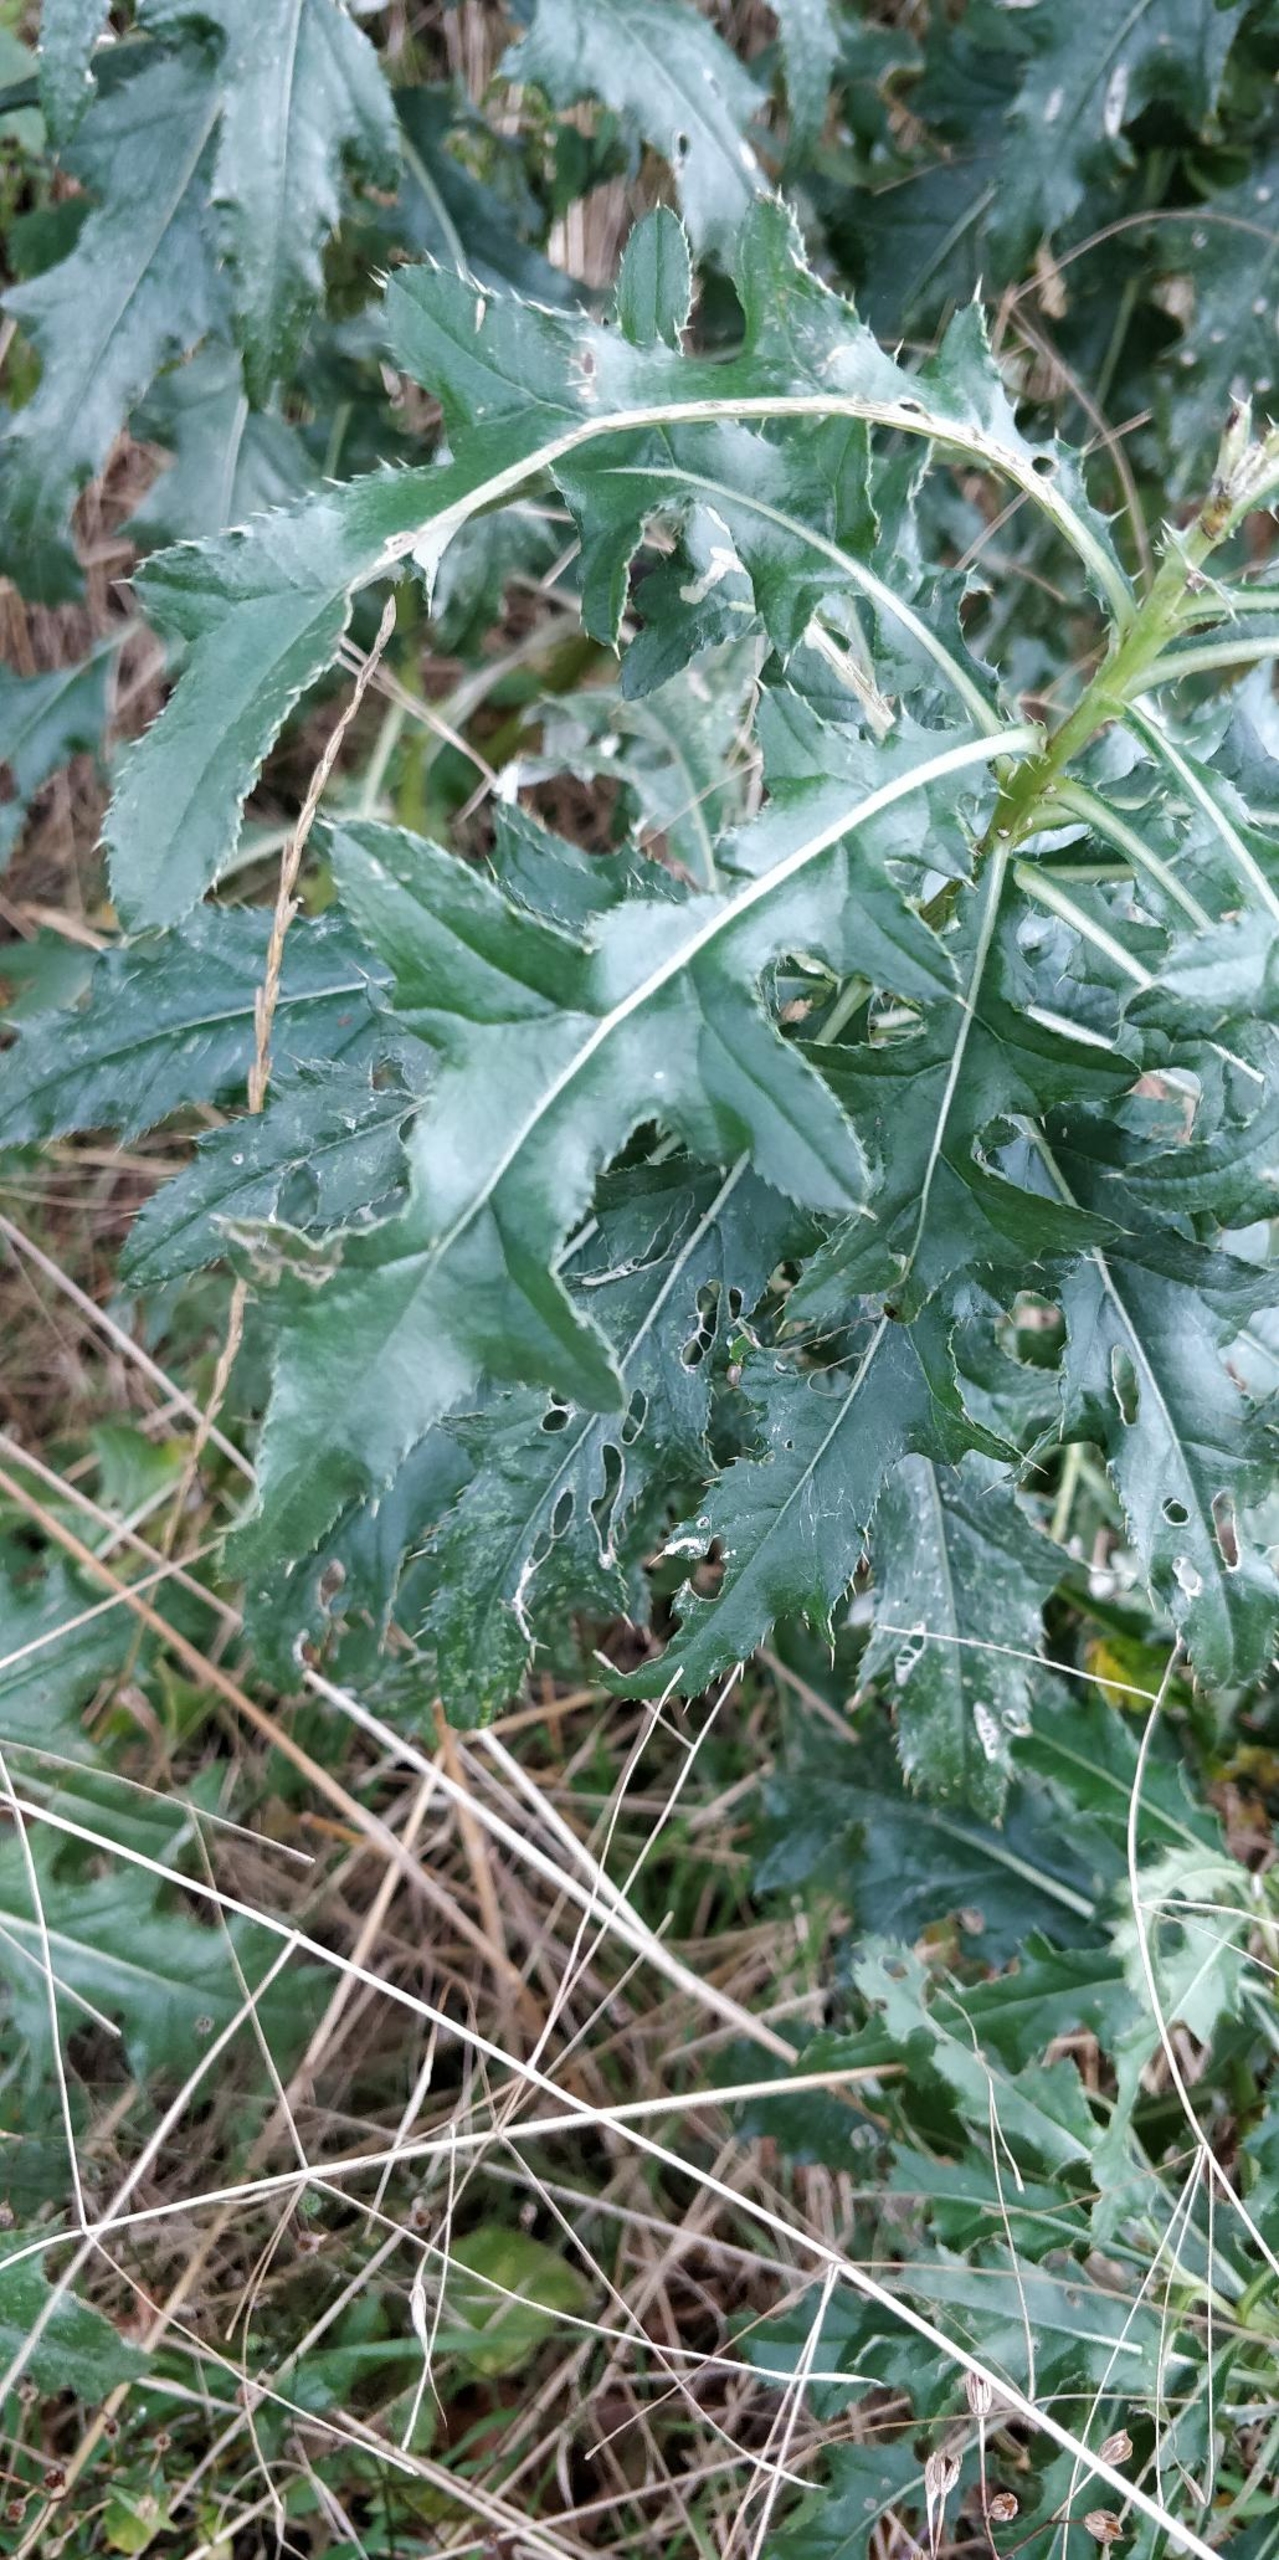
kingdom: Plantae
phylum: Tracheophyta
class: Magnoliopsida
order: Asterales
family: Asteraceae
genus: Cirsium
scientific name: Cirsium arvense
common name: Ager-tidsel
